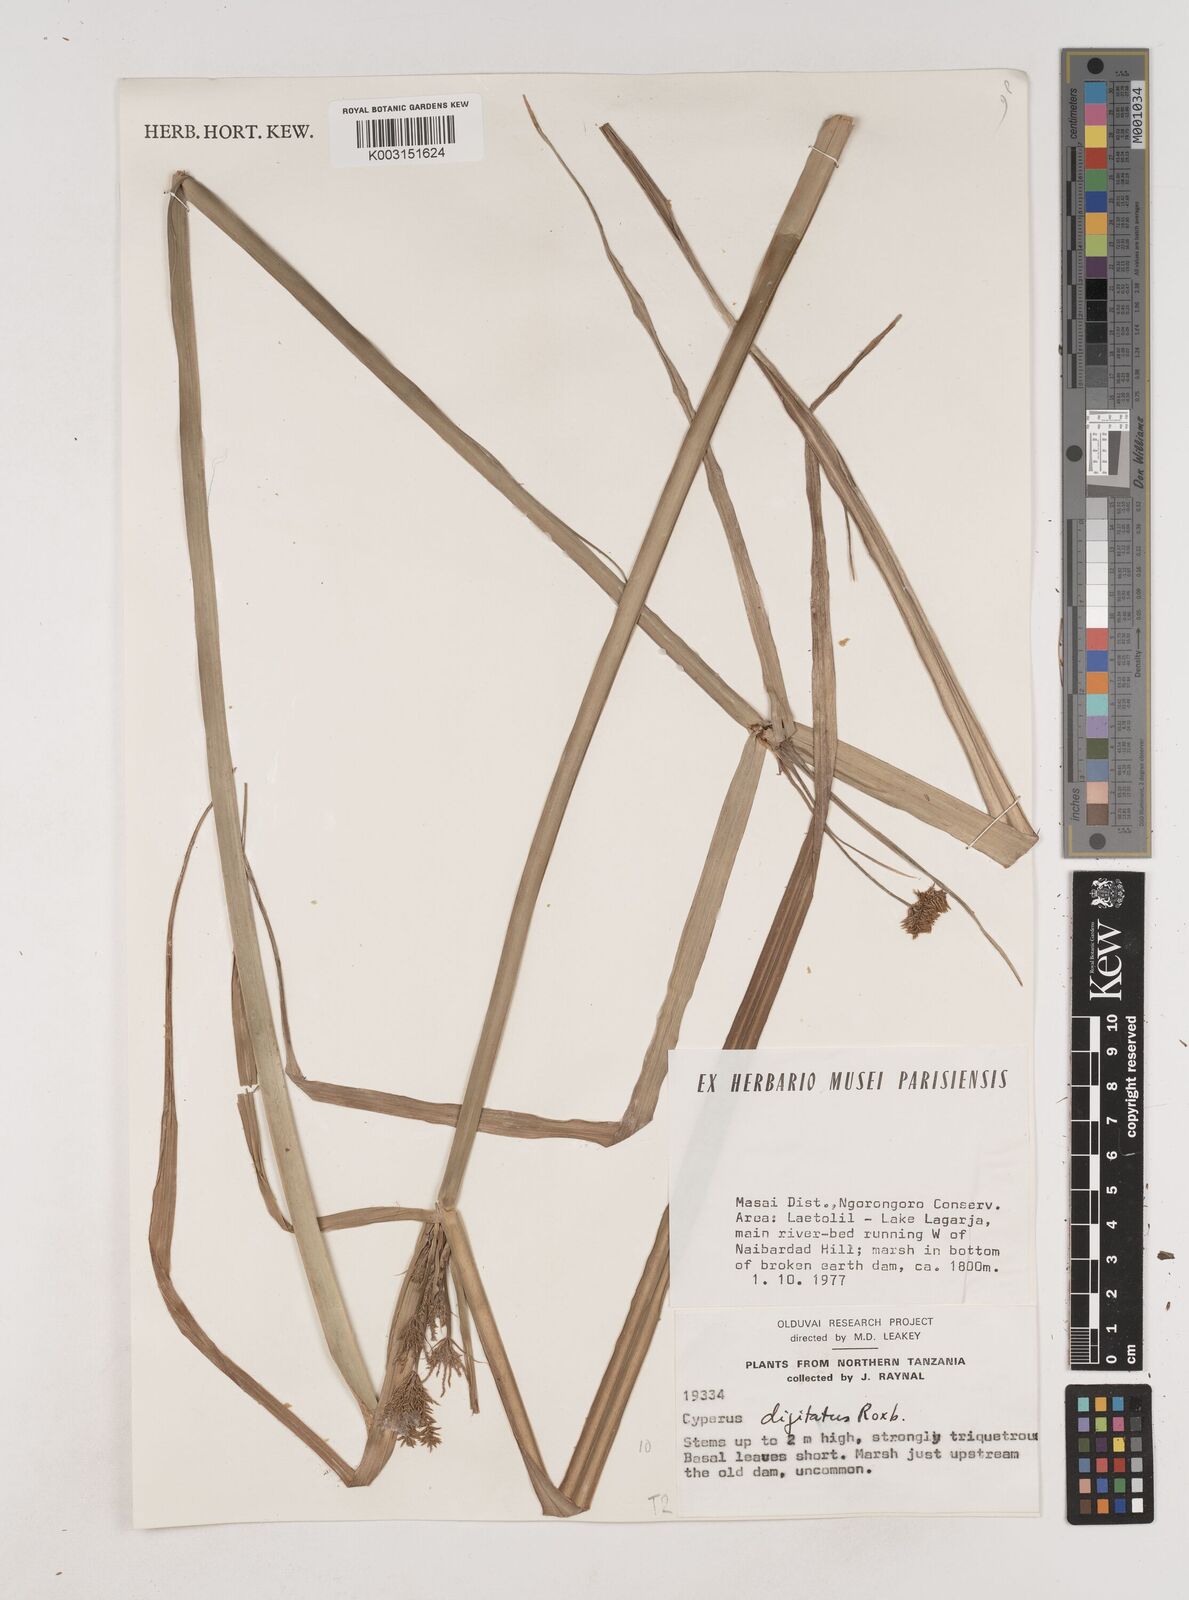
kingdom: Plantae
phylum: Tracheophyta
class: Liliopsida
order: Poales
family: Cyperaceae
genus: Cyperus
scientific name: Cyperus digitatus
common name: Finger flatsedge
